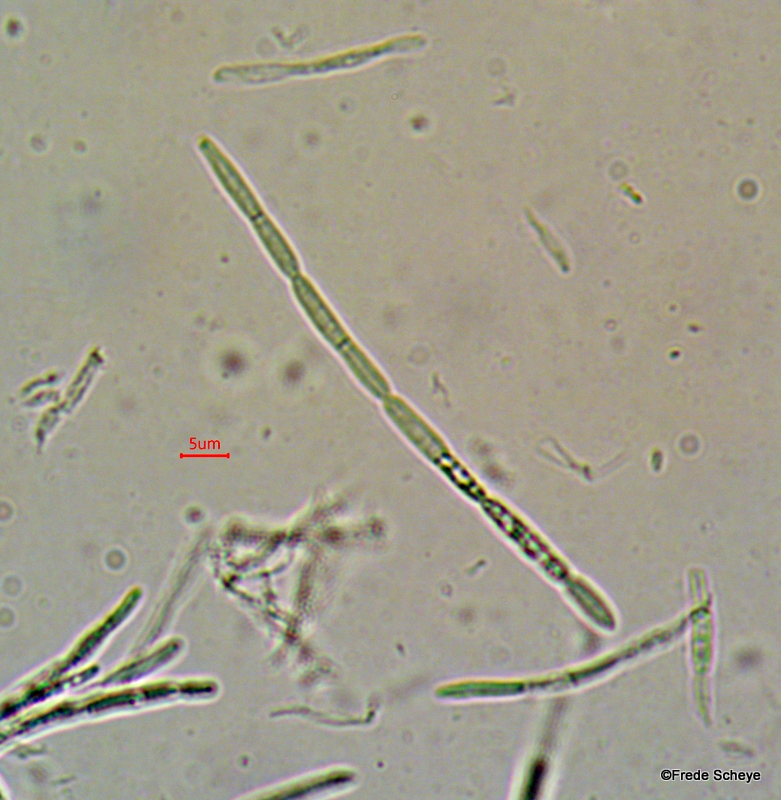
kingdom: Fungi
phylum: Ascomycota
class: Leotiomycetes
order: Helotiales
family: Calloriaceae
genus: Calloria
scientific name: Calloria urticae
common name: nælde-orangeskive
